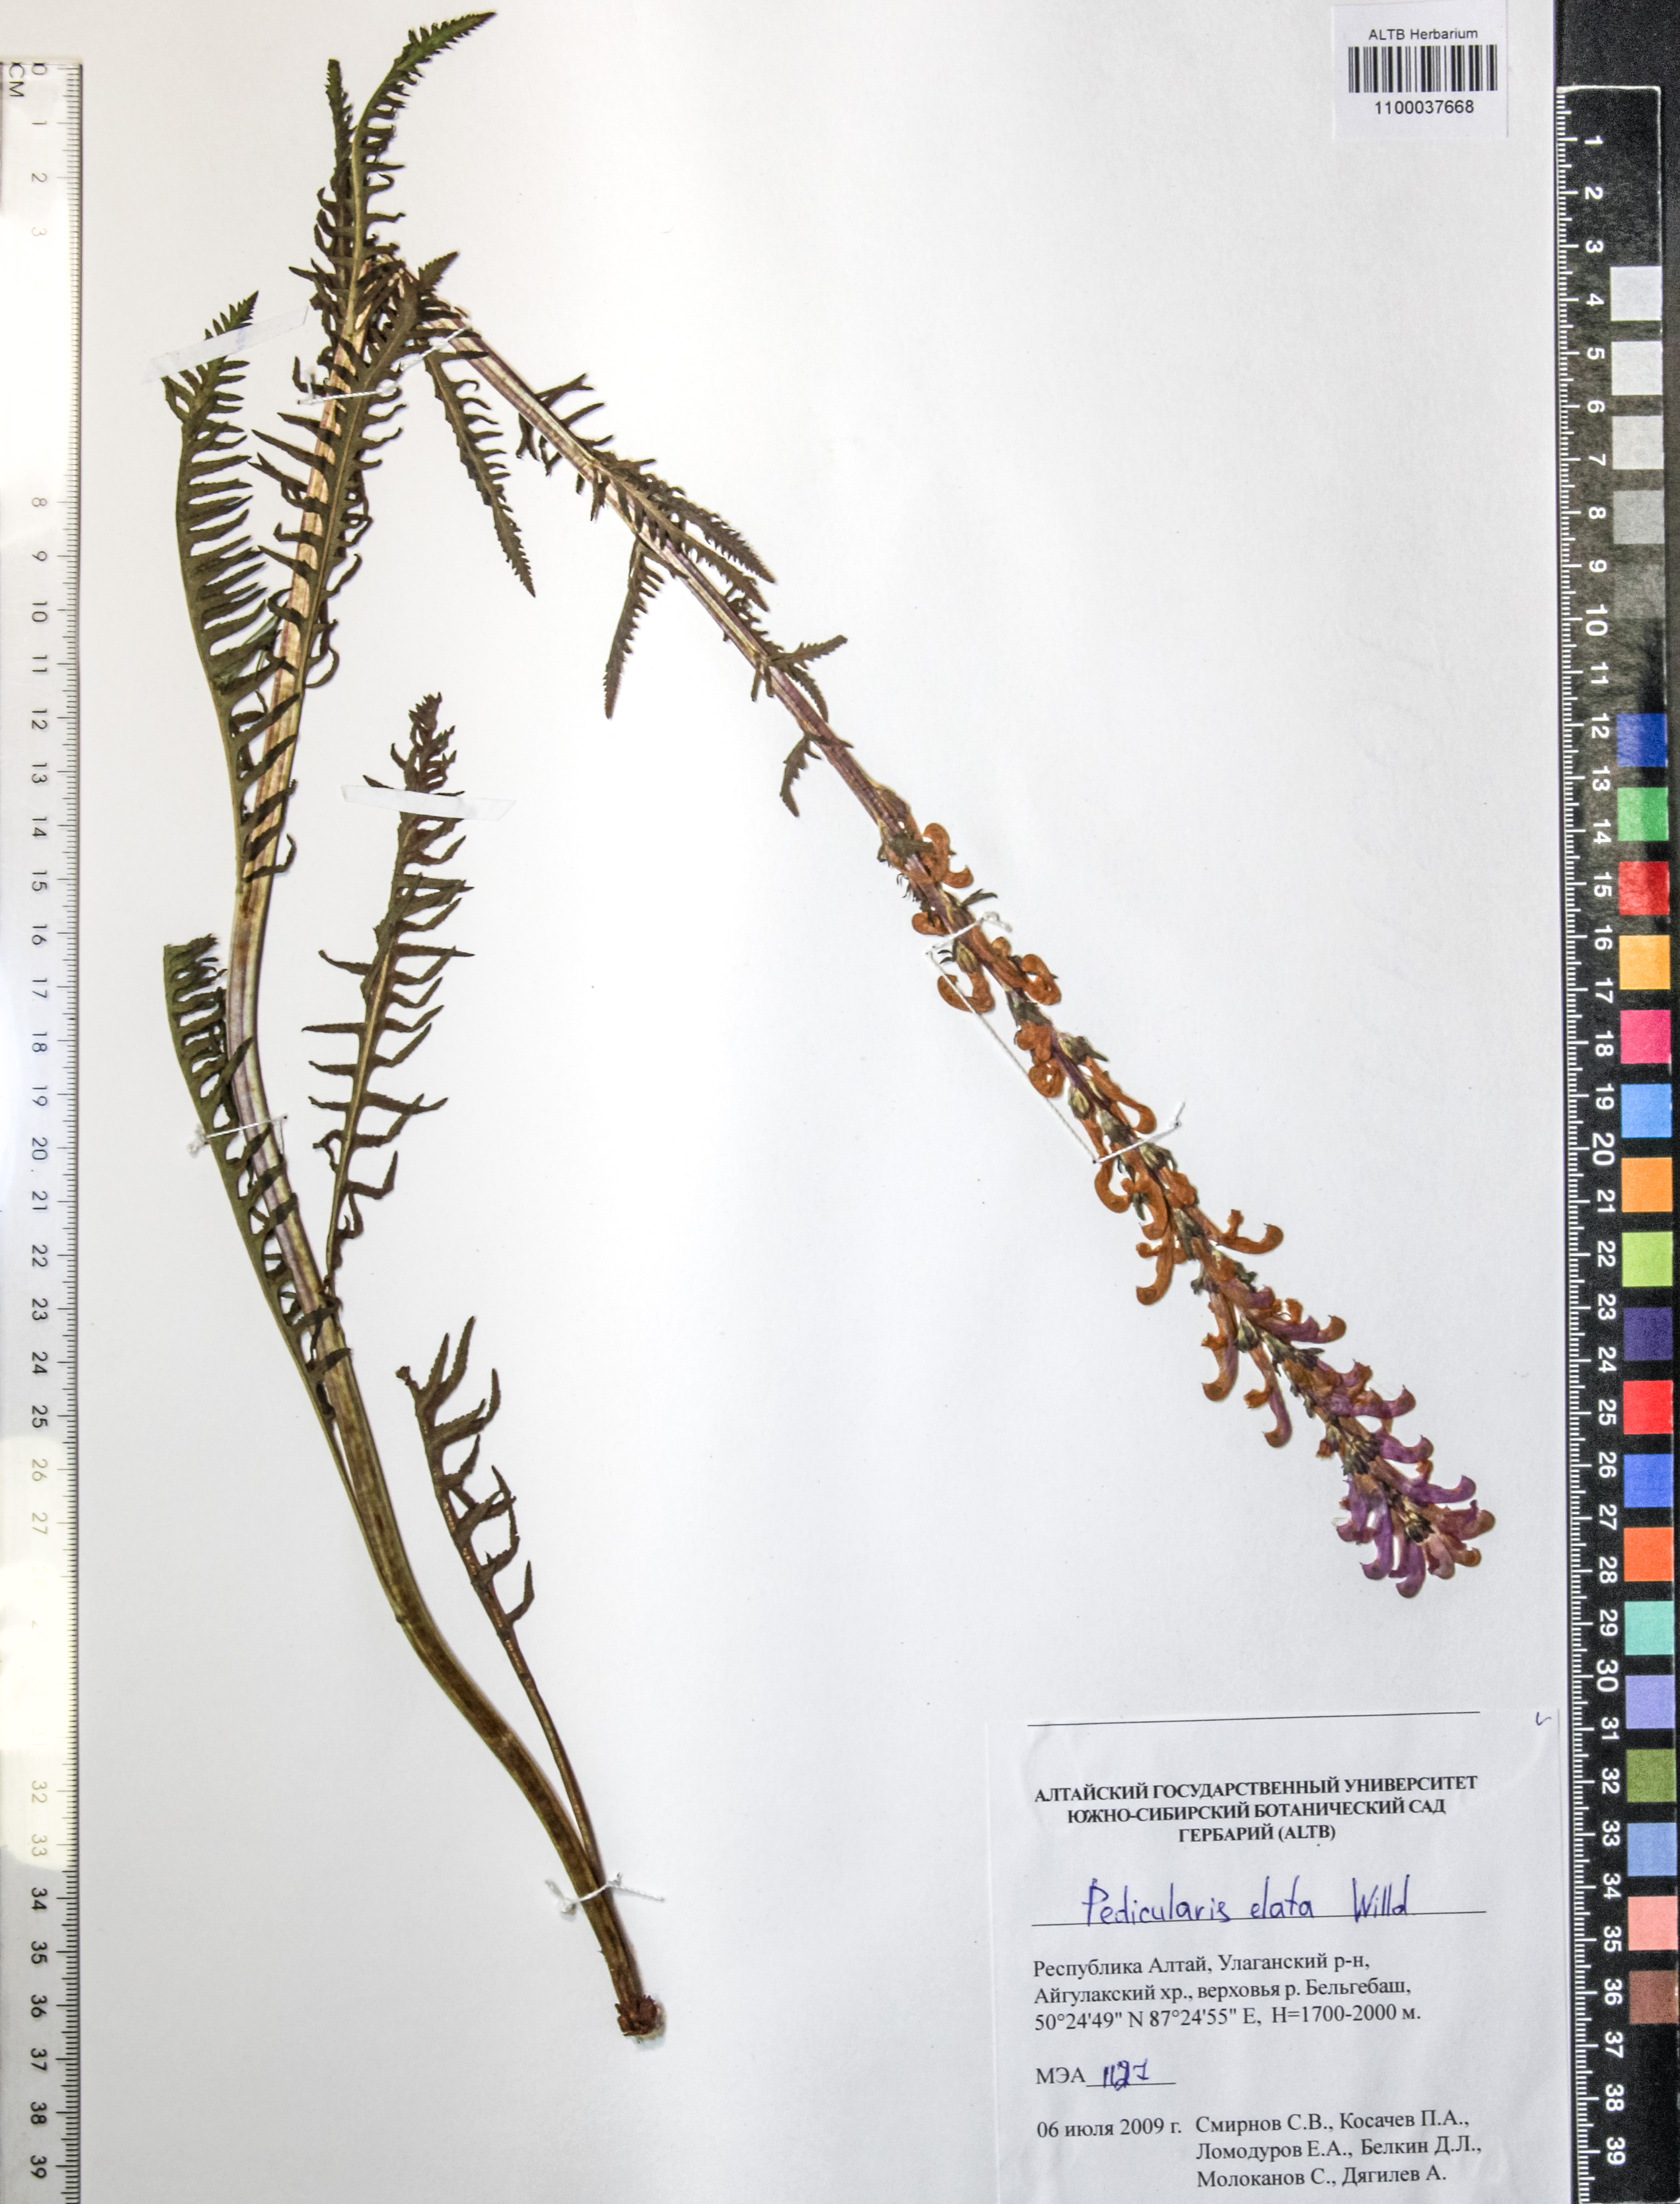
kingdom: Plantae
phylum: Tracheophyta
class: Magnoliopsida
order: Lamiales
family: Orobanchaceae
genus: Pedicularis
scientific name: Pedicularis elata
